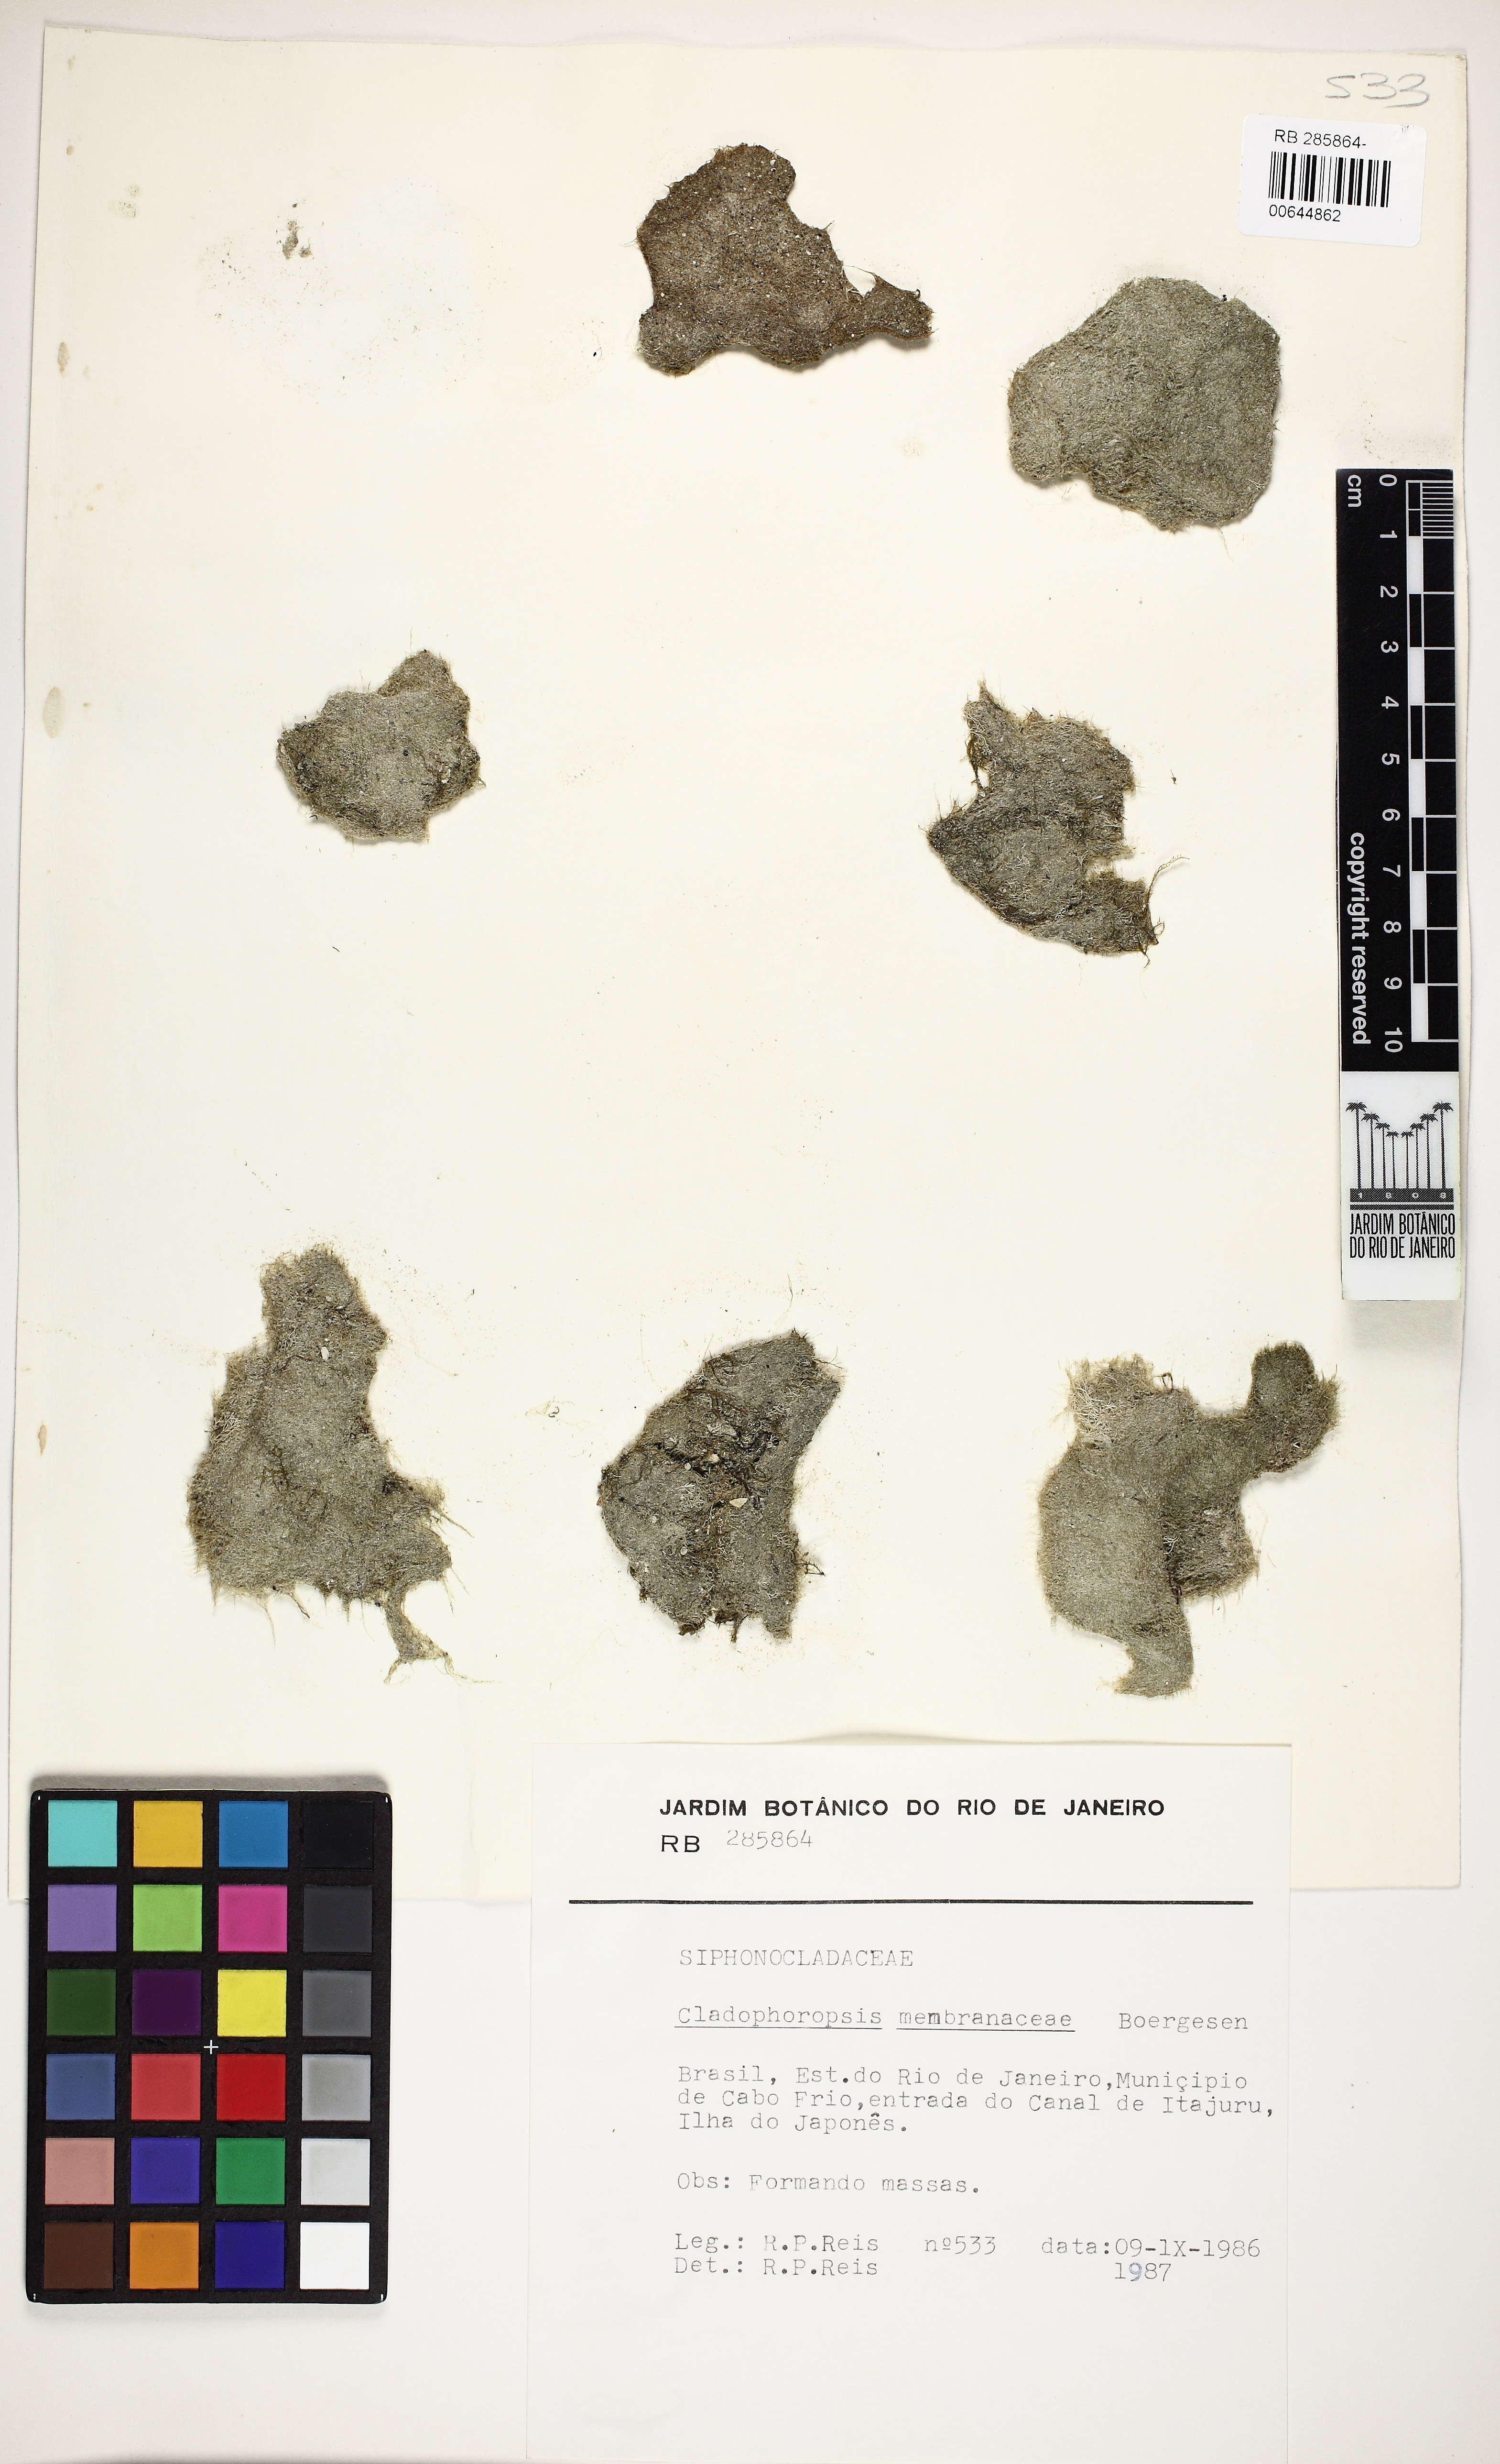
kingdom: Plantae
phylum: Chlorophyta
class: Ulvophyceae
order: Siphonocladales
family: Boodleaceae
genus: Cladophoropsis
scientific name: Cladophoropsis membranacea
